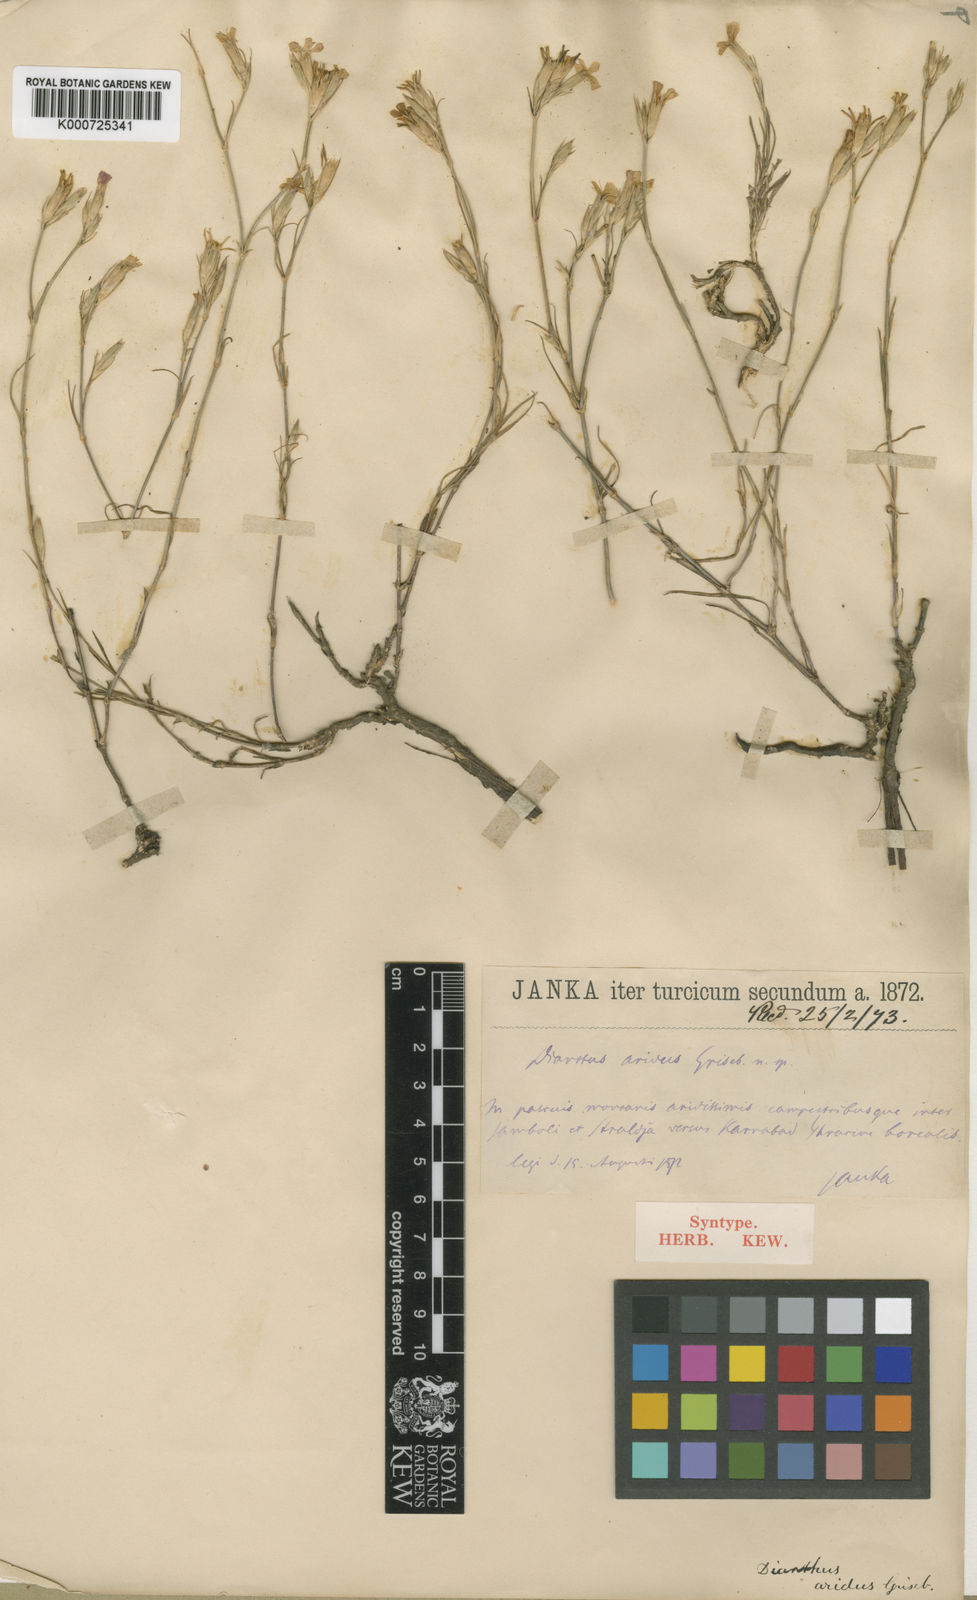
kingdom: Plantae
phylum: Tracheophyta
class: Magnoliopsida
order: Caryophyllales
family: Caryophyllaceae
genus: Dianthus
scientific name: Dianthus pallens
